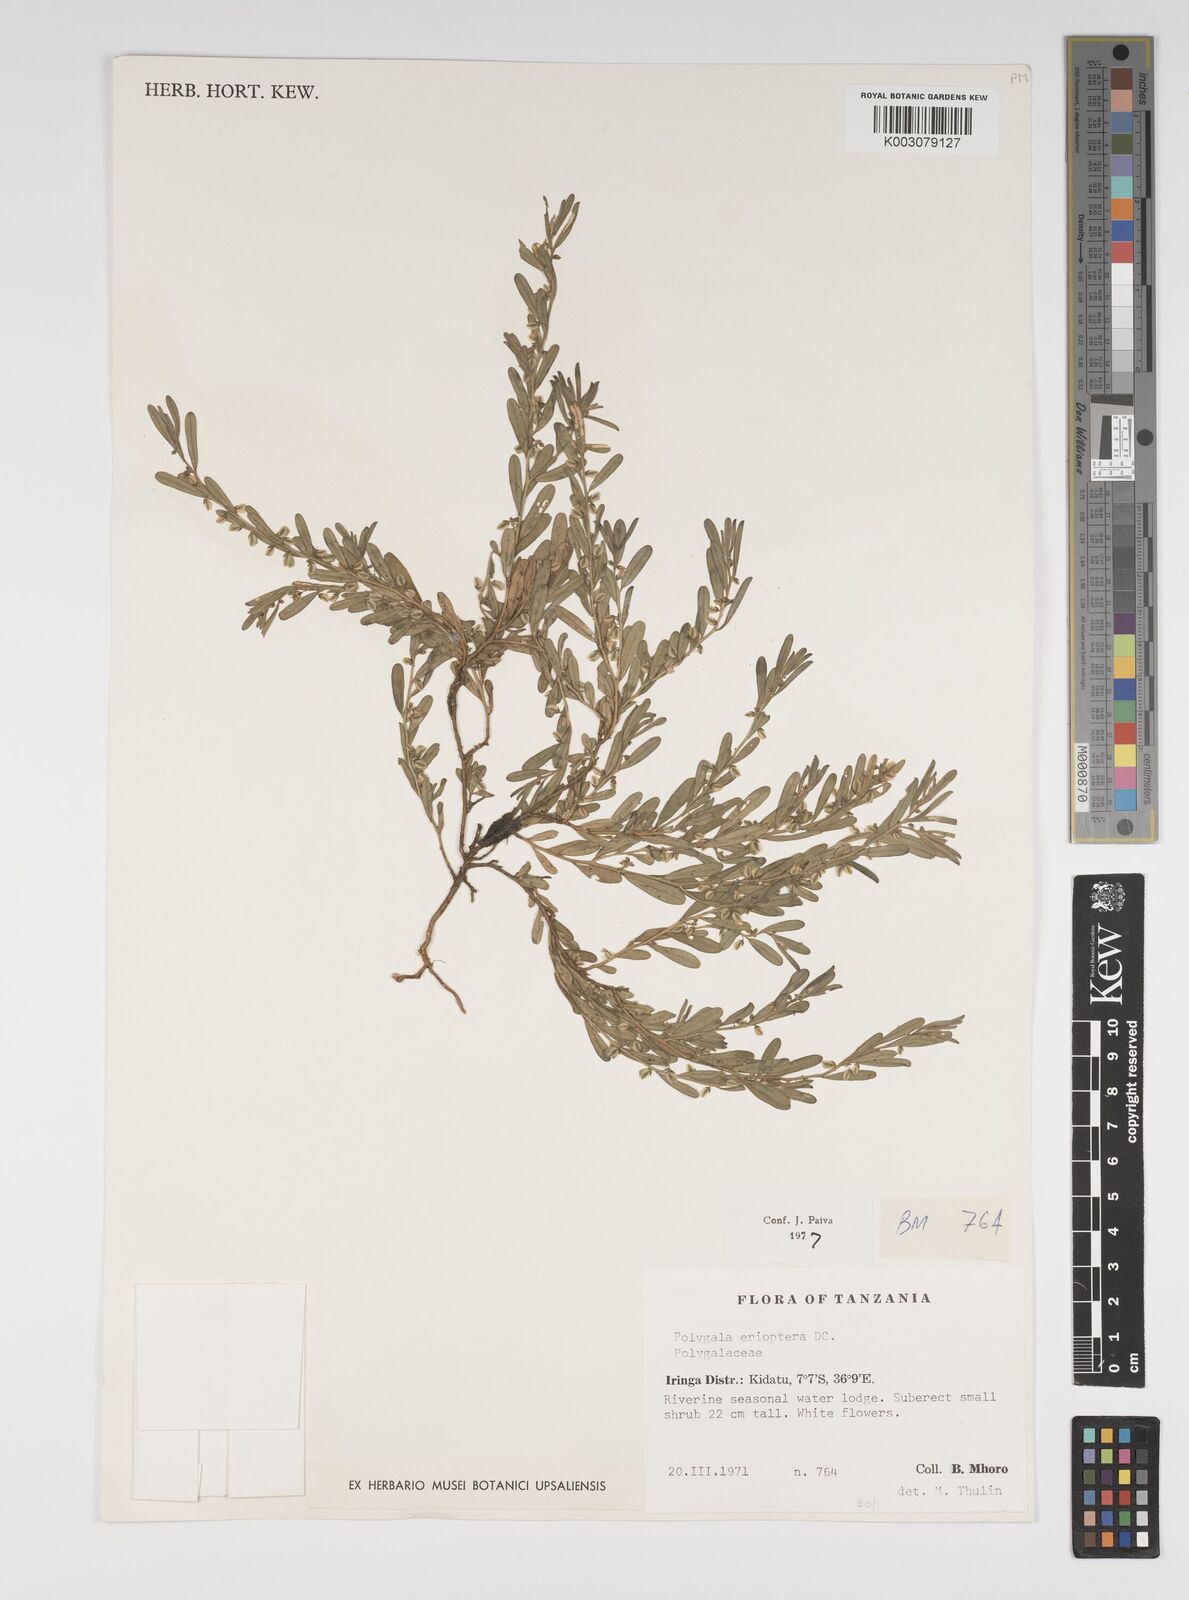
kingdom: Plantae
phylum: Tracheophyta
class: Magnoliopsida
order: Fabales
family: Polygalaceae
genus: Polygala
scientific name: Polygala erioptera
